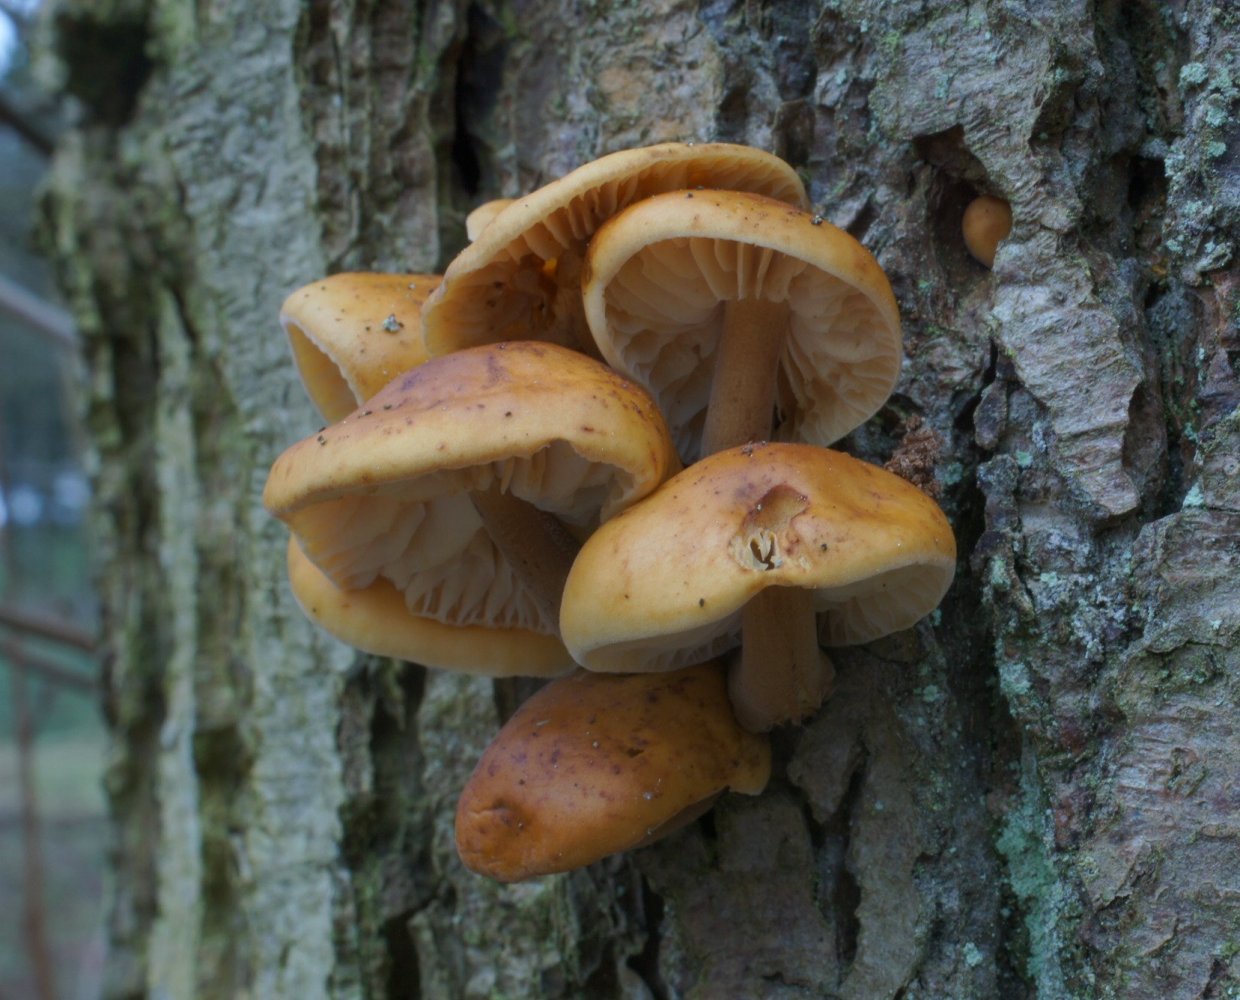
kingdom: Fungi
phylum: Basidiomycota
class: Agaricomycetes
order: Agaricales
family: Physalacriaceae
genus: Flammulina
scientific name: Flammulina velutipes
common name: gul fløjlsfod
